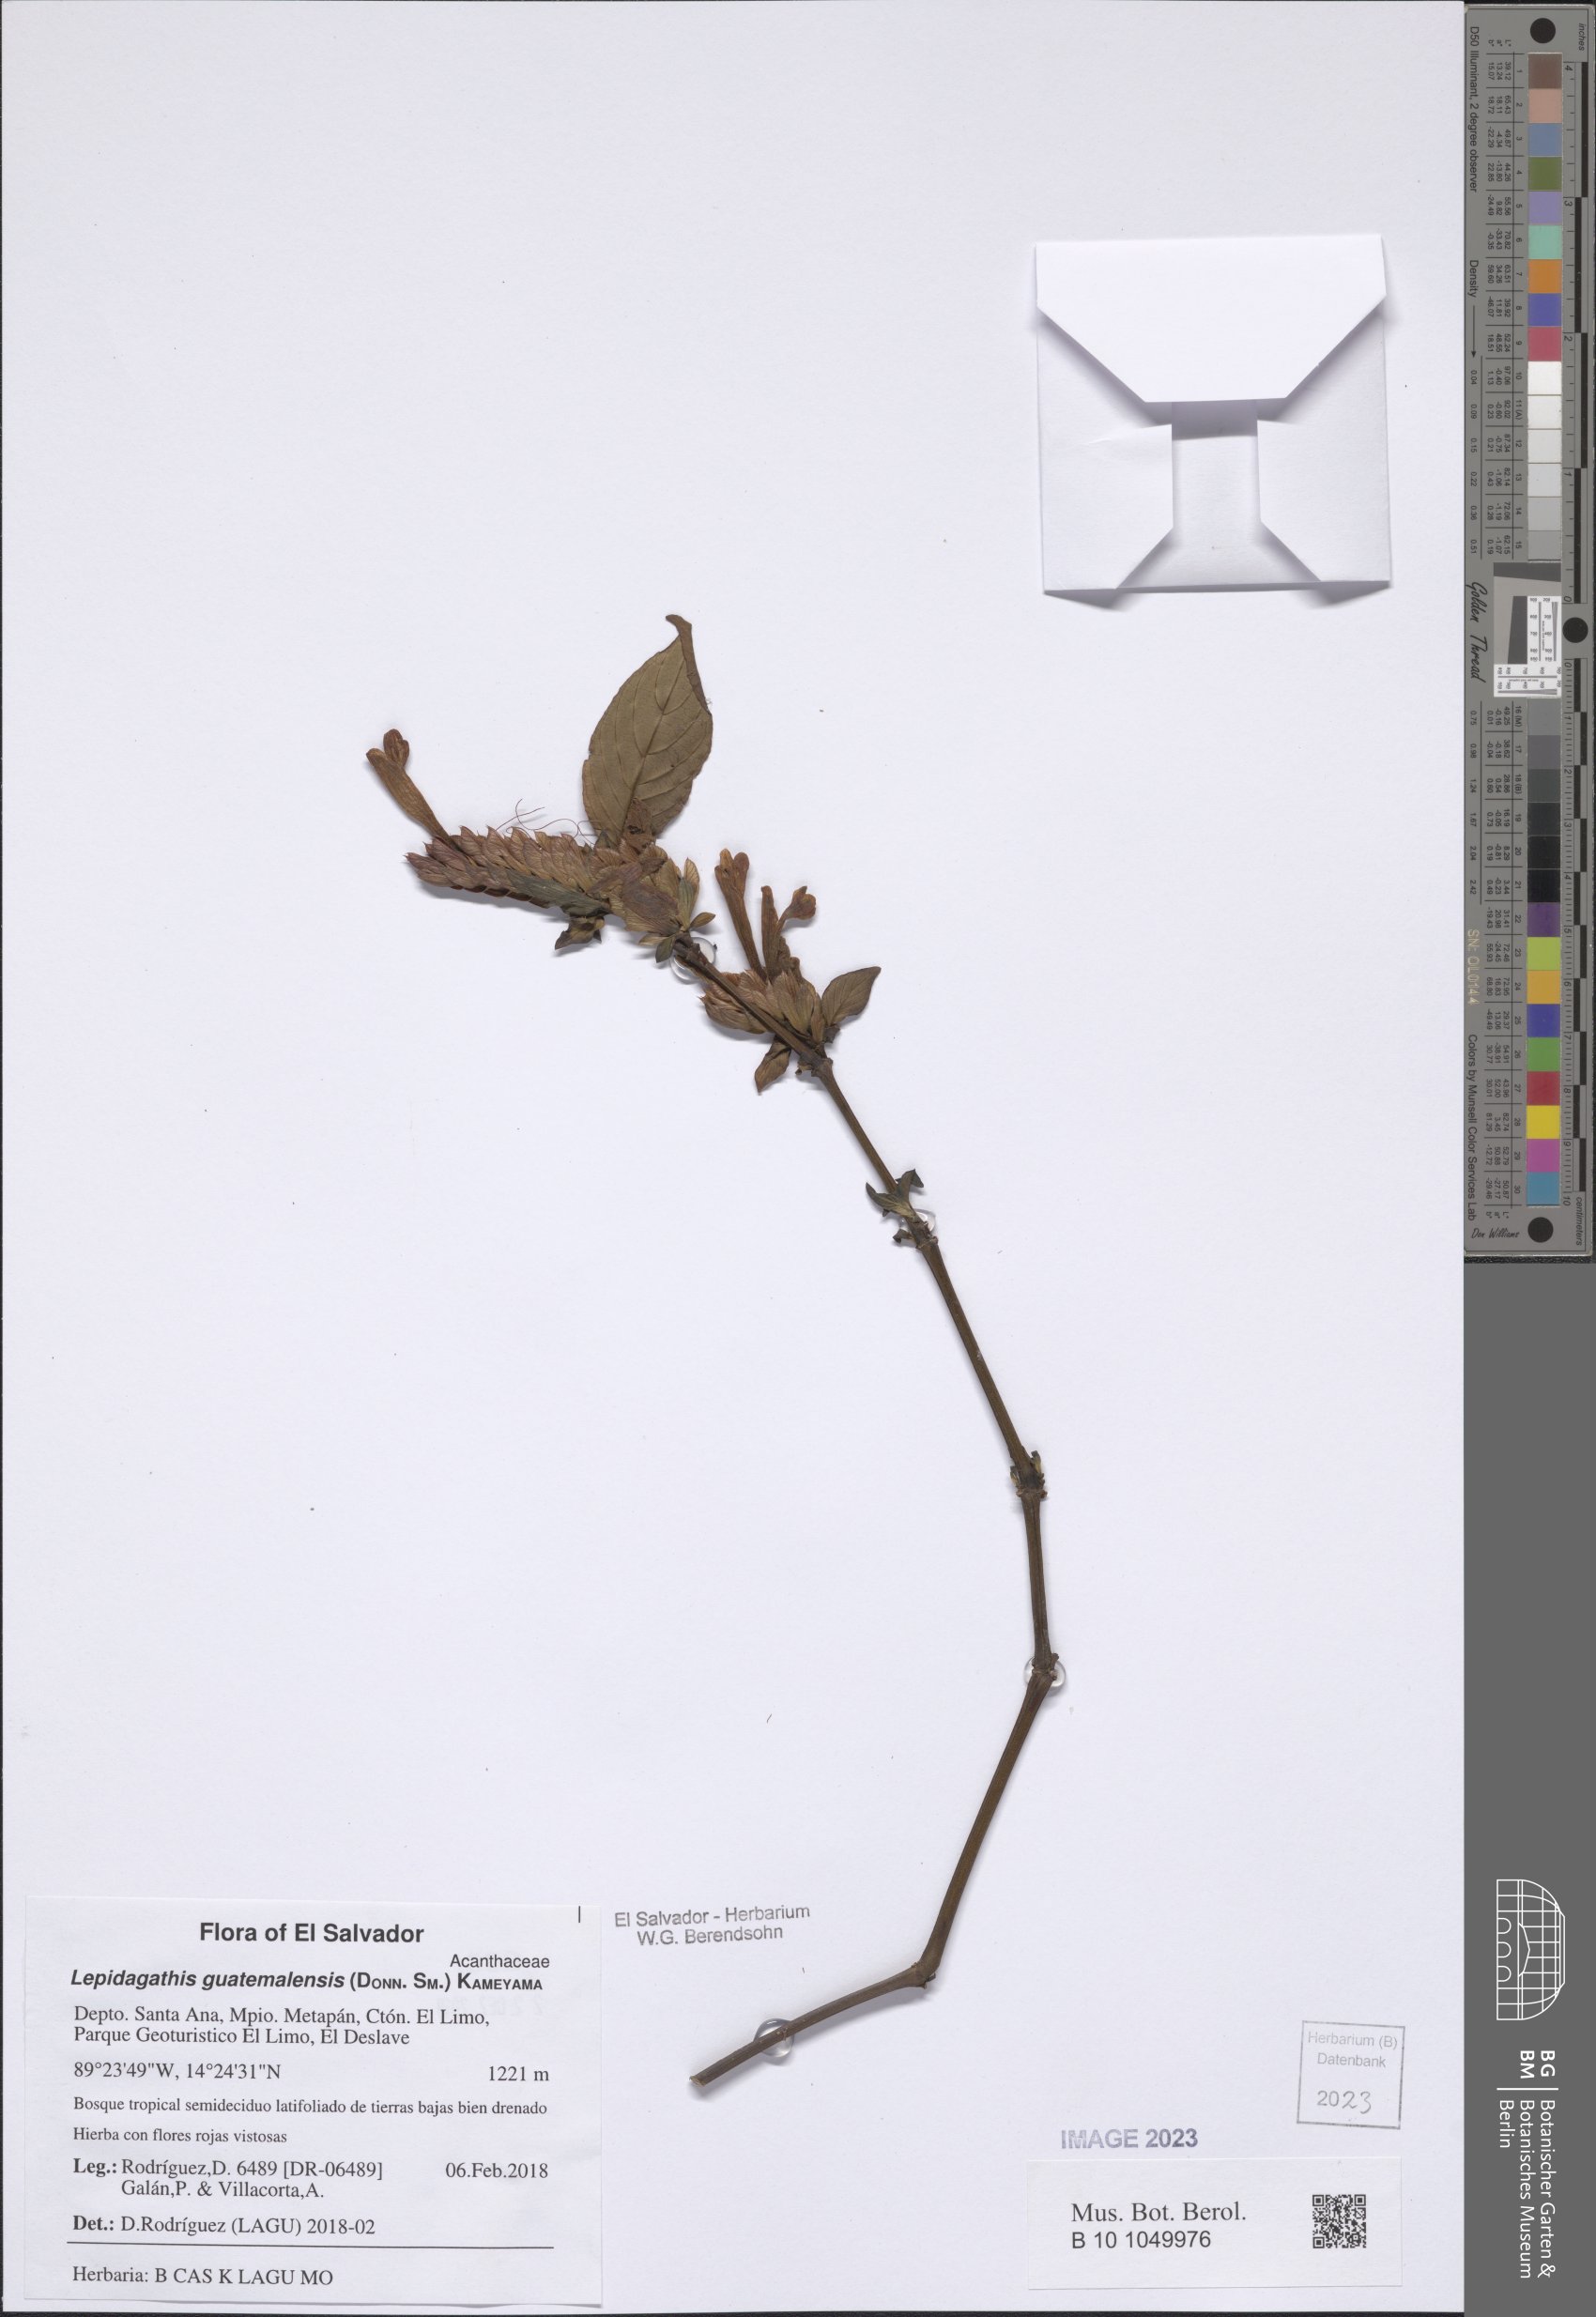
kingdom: Plantae
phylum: Tracheophyta
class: Magnoliopsida
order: Lamiales
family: Acanthaceae
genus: Lepidagathis
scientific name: Lepidagathis guatemalensis
